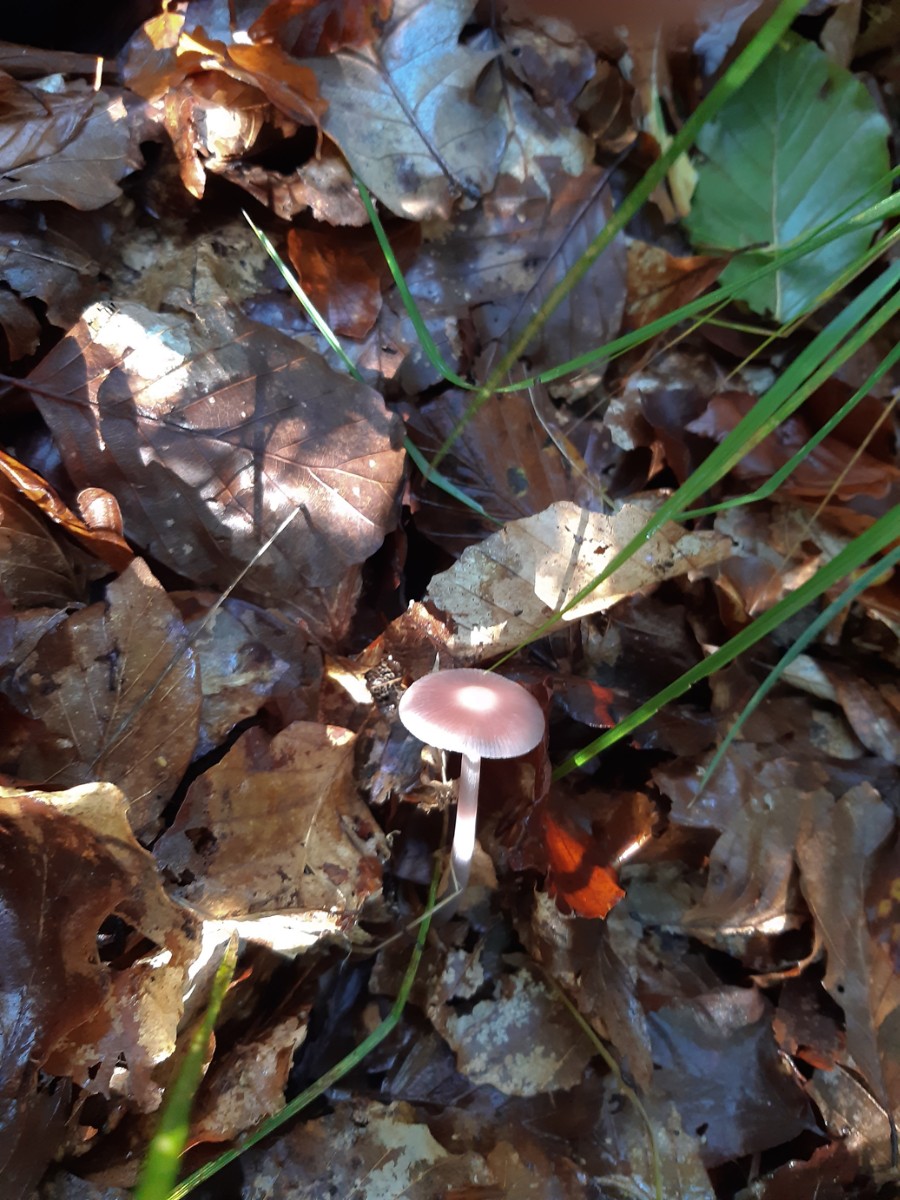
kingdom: Fungi
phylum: Basidiomycota
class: Agaricomycetes
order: Agaricales
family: Mycenaceae
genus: Mycena
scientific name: Mycena rosea
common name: rosa huesvamp
